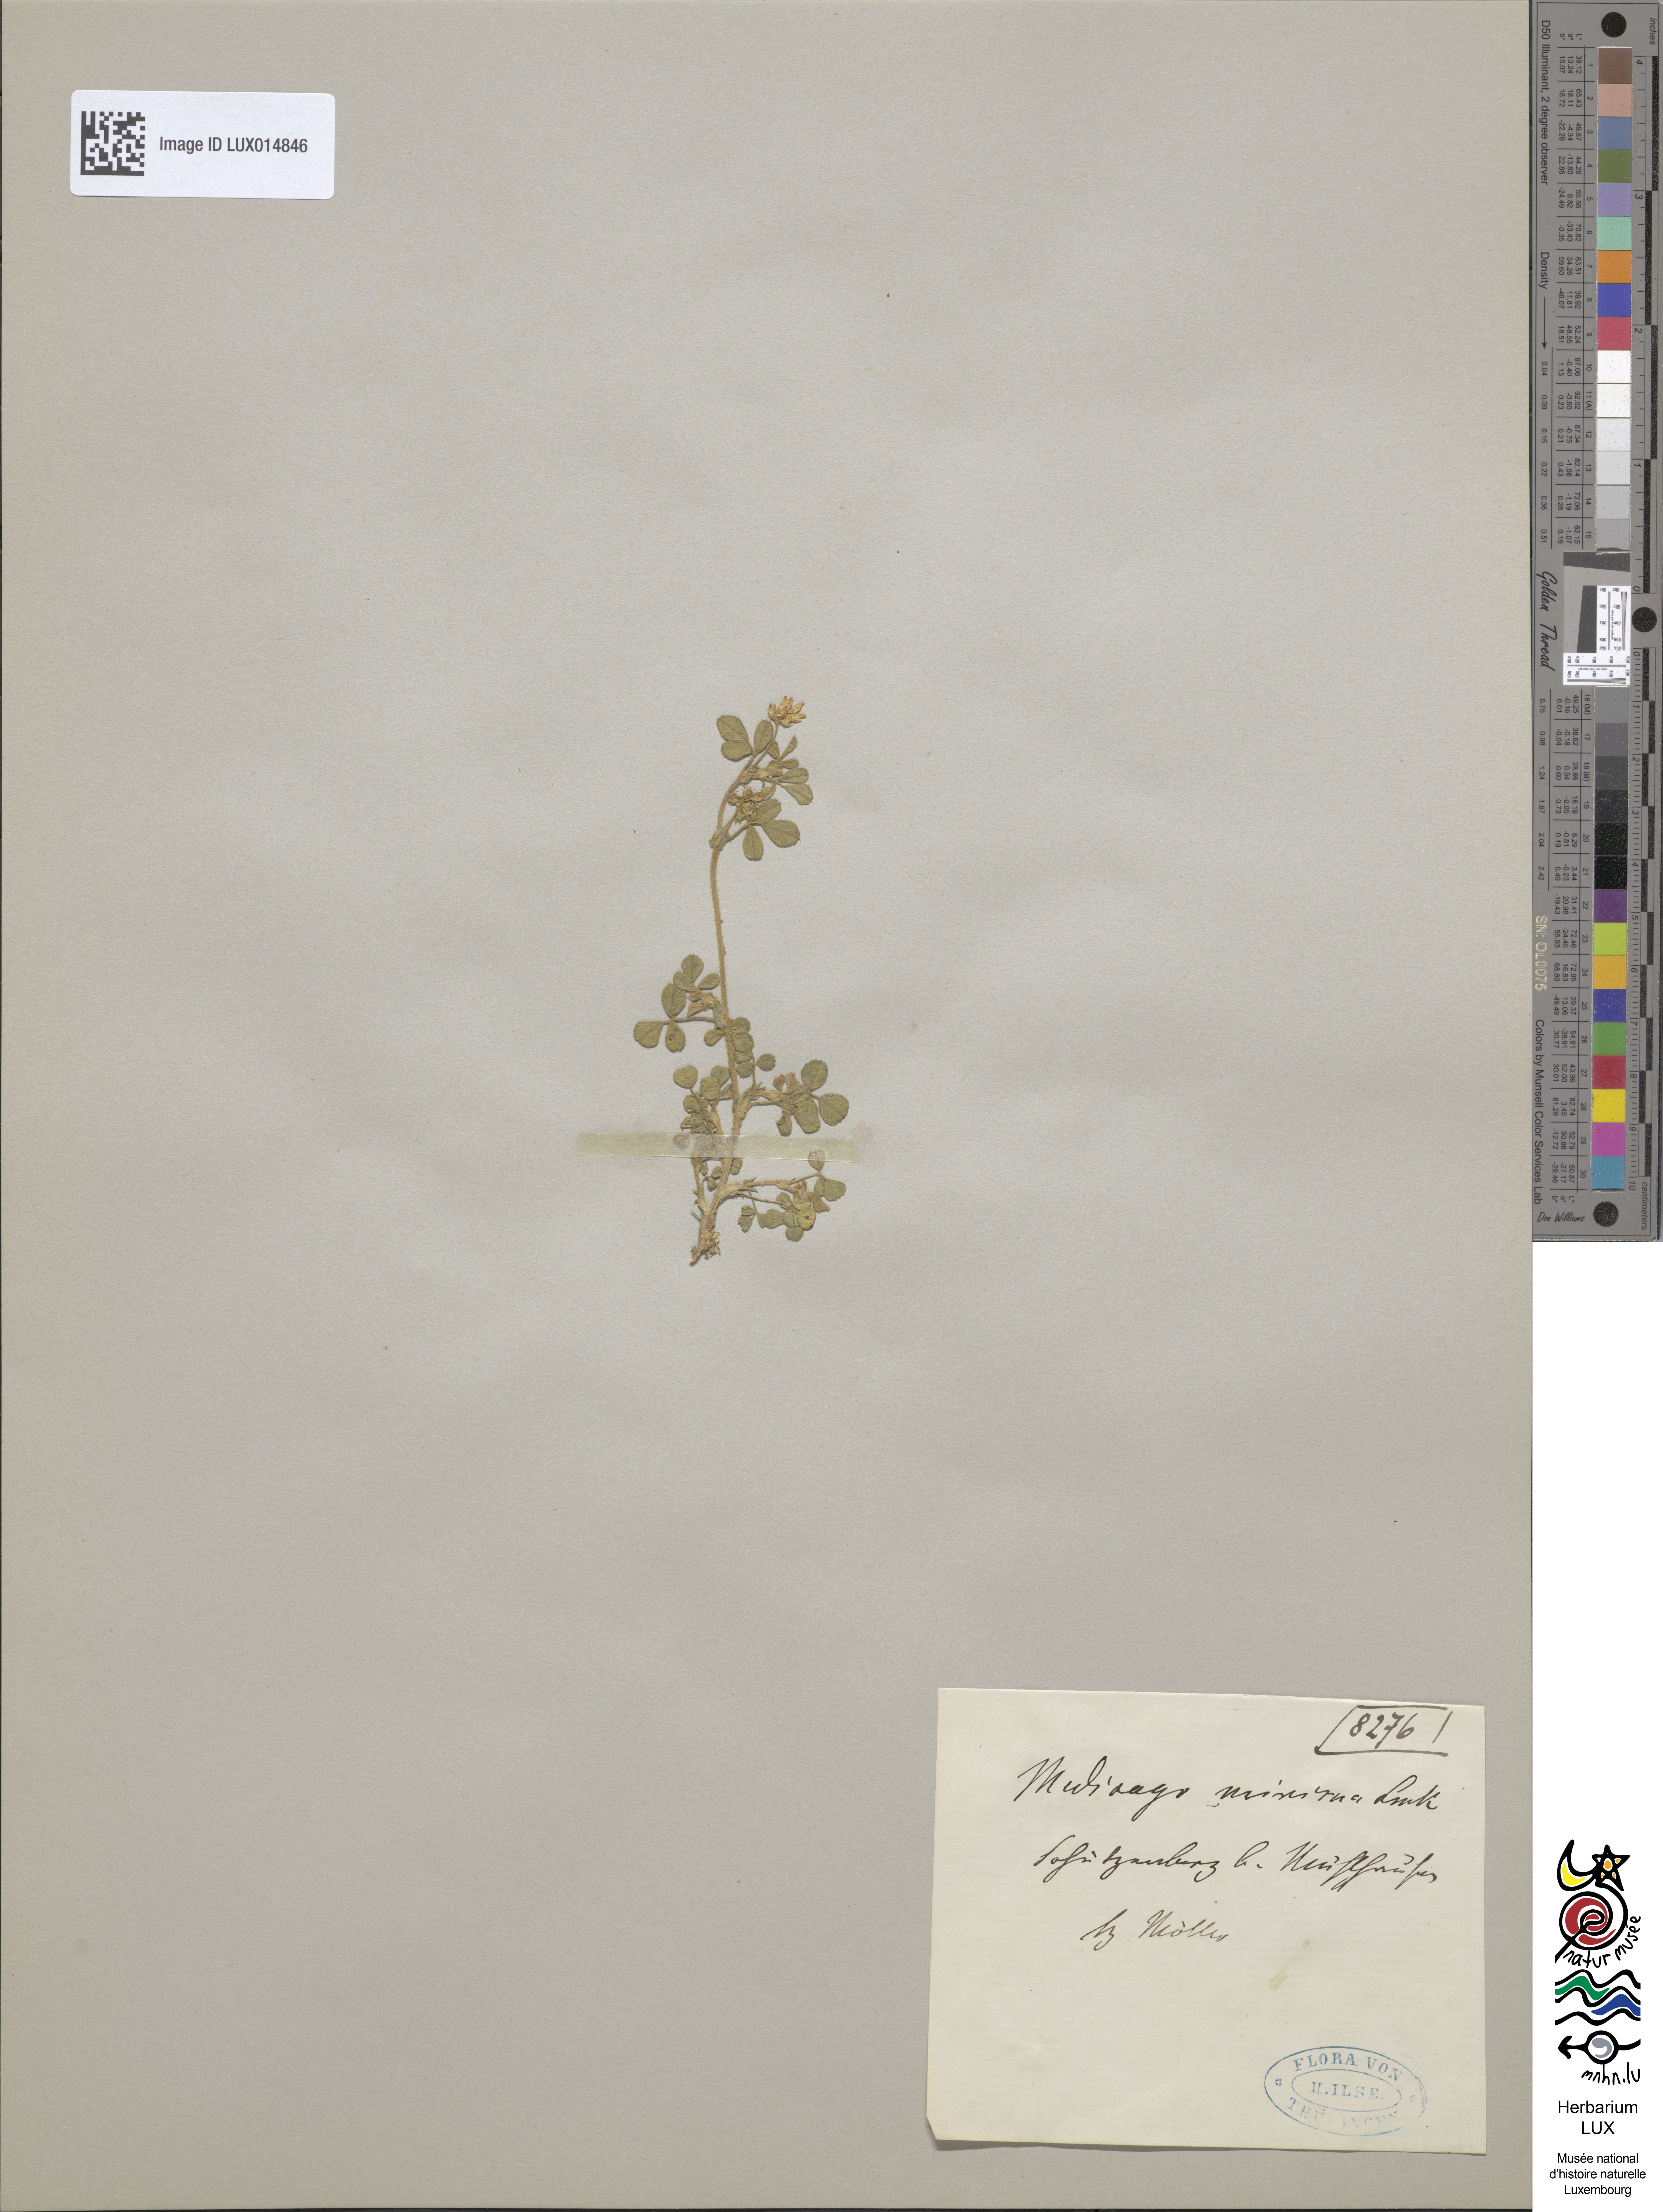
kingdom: Plantae
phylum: Tracheophyta
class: Magnoliopsida
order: Fabales
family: Fabaceae
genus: Medicago
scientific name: Medicago minima
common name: Little bur-clover
